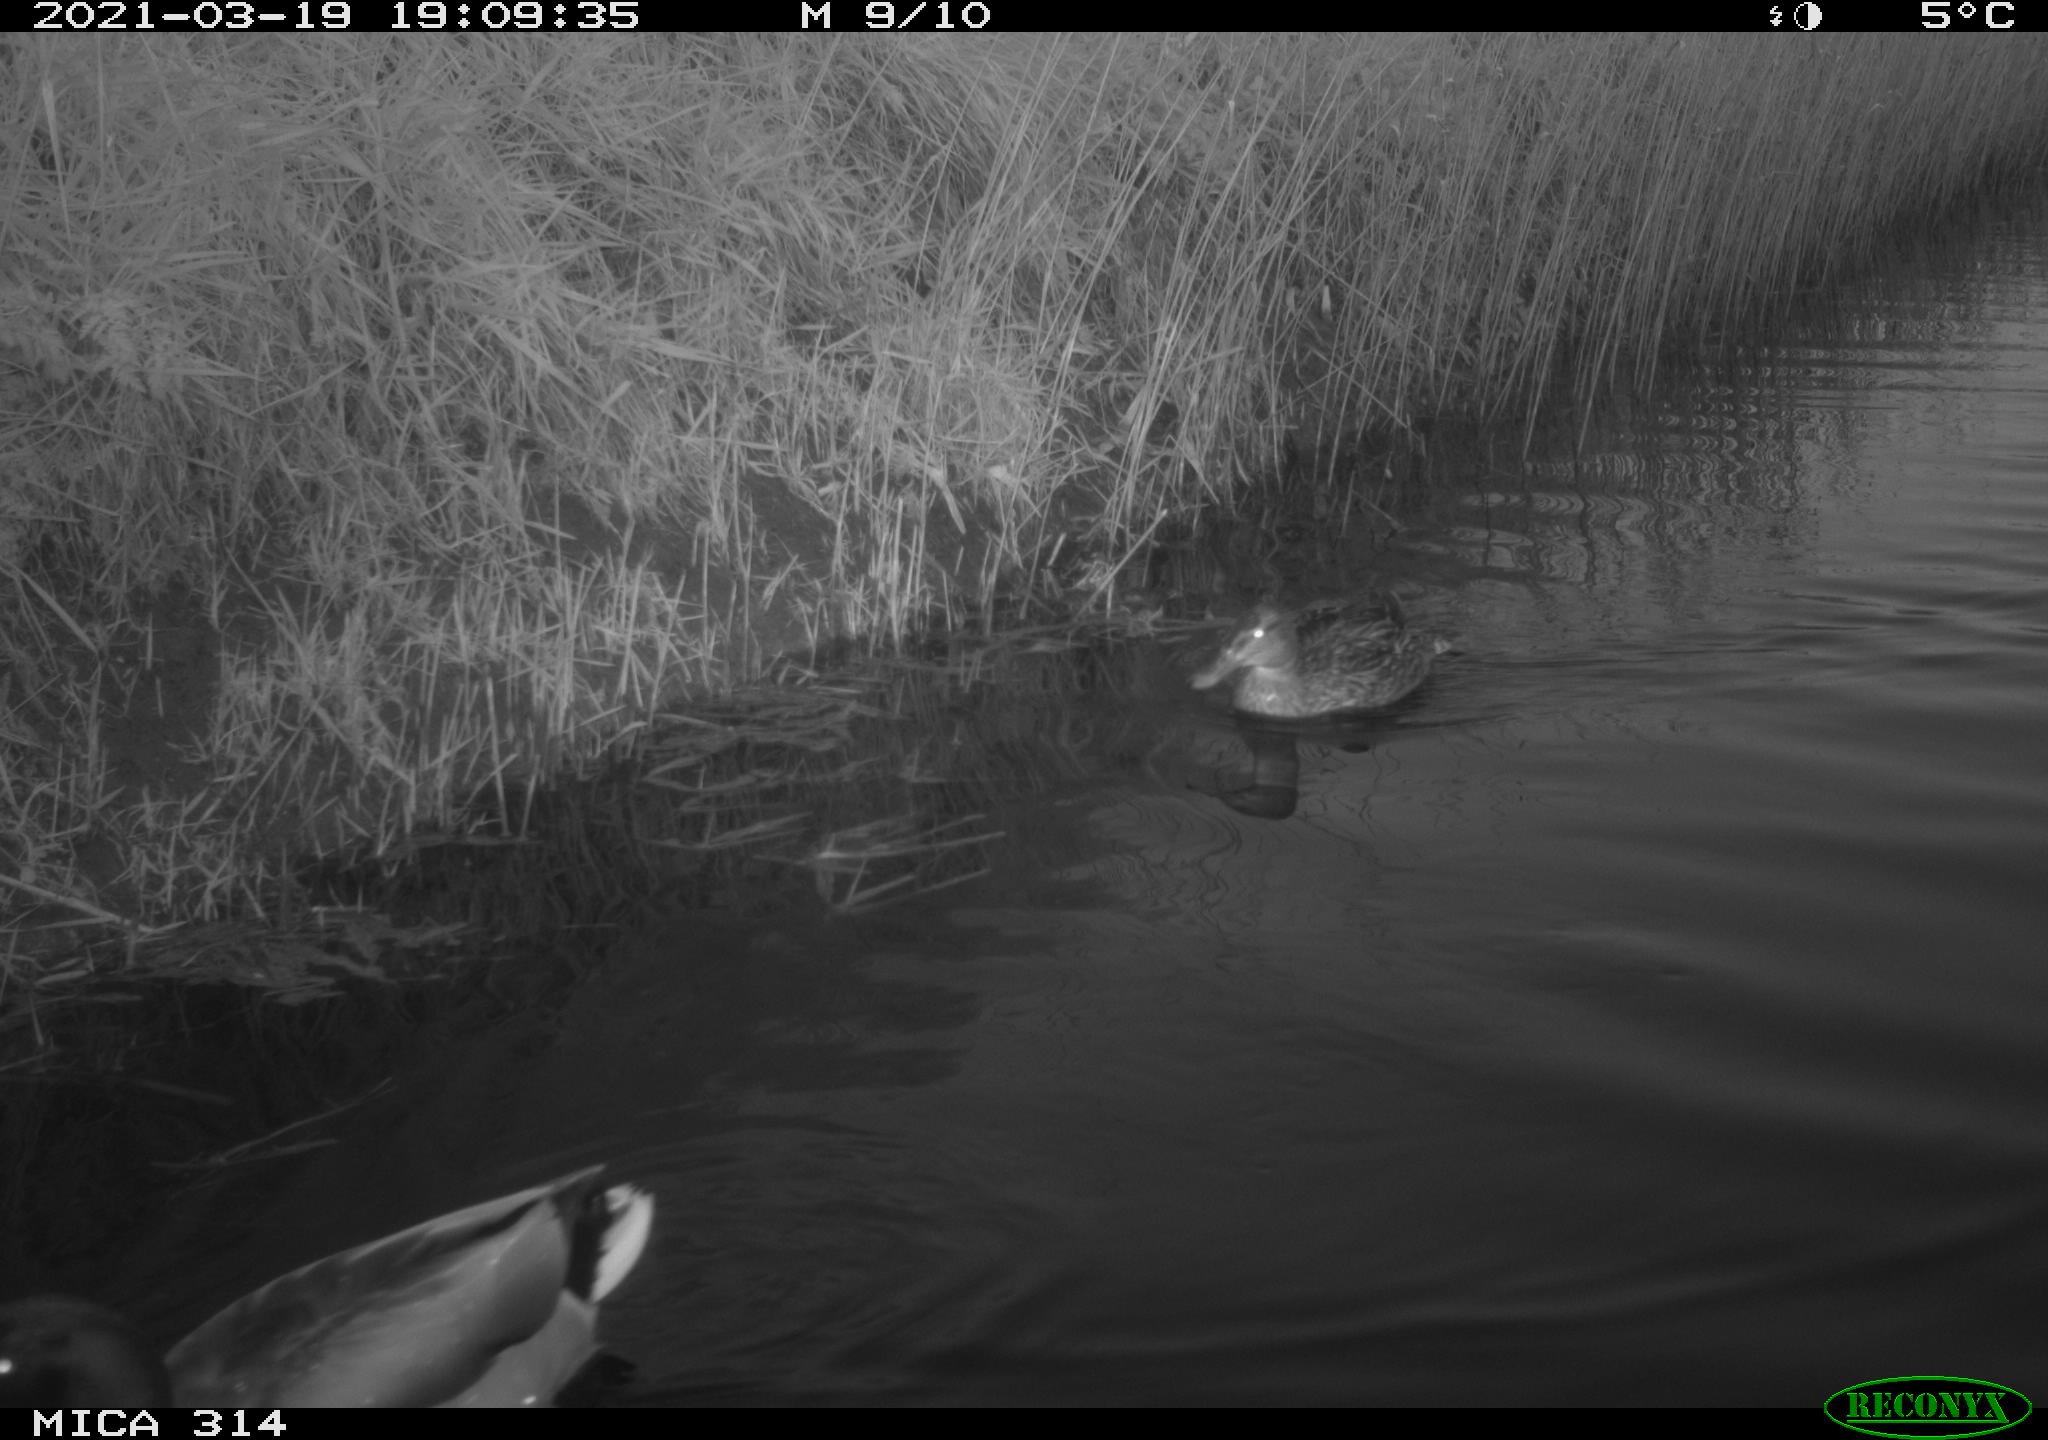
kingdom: Animalia
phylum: Chordata
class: Aves
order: Anseriformes
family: Anatidae
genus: Mareca
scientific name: Mareca strepera
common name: Gadwall
